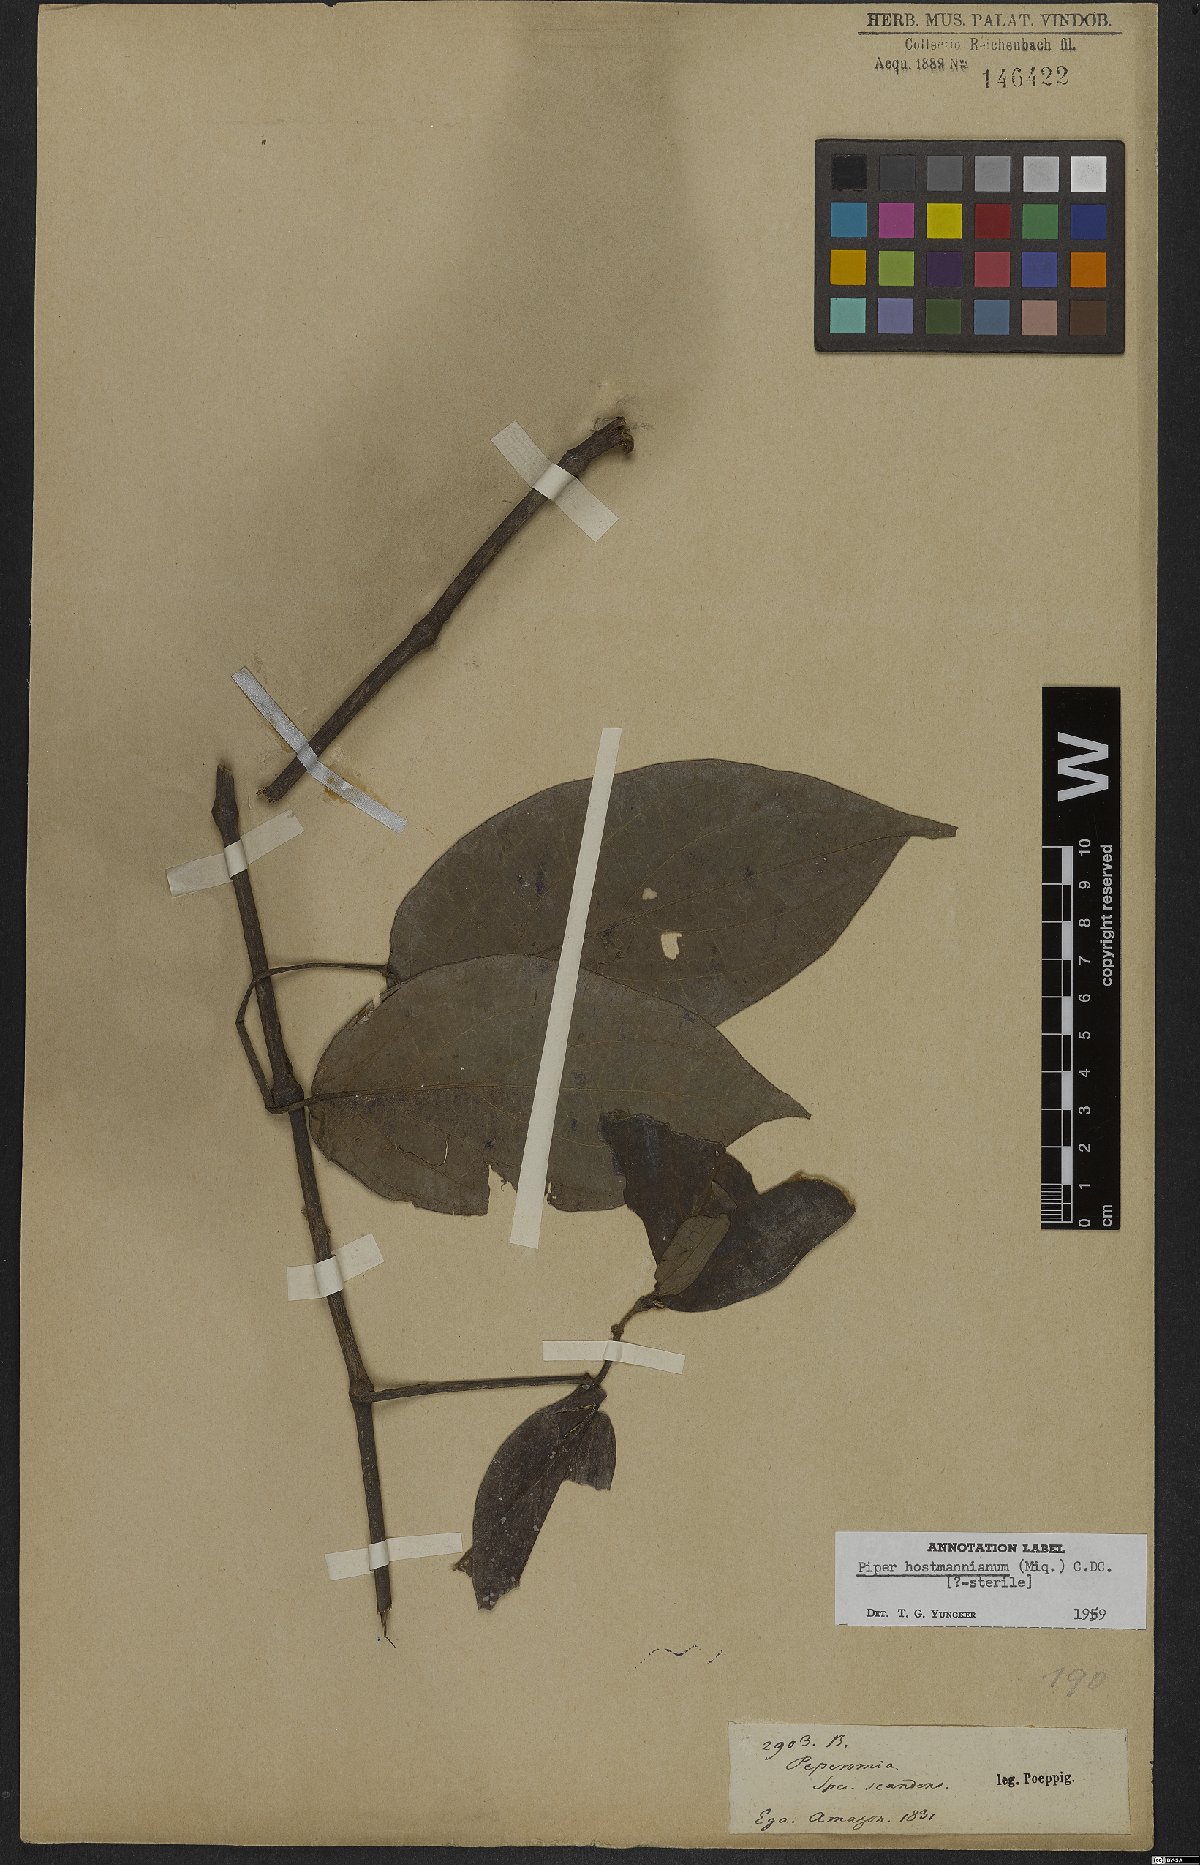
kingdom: Plantae
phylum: Tracheophyta
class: Magnoliopsida
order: Piperales
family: Piperaceae
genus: Piper
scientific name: Piper hostmannianum
